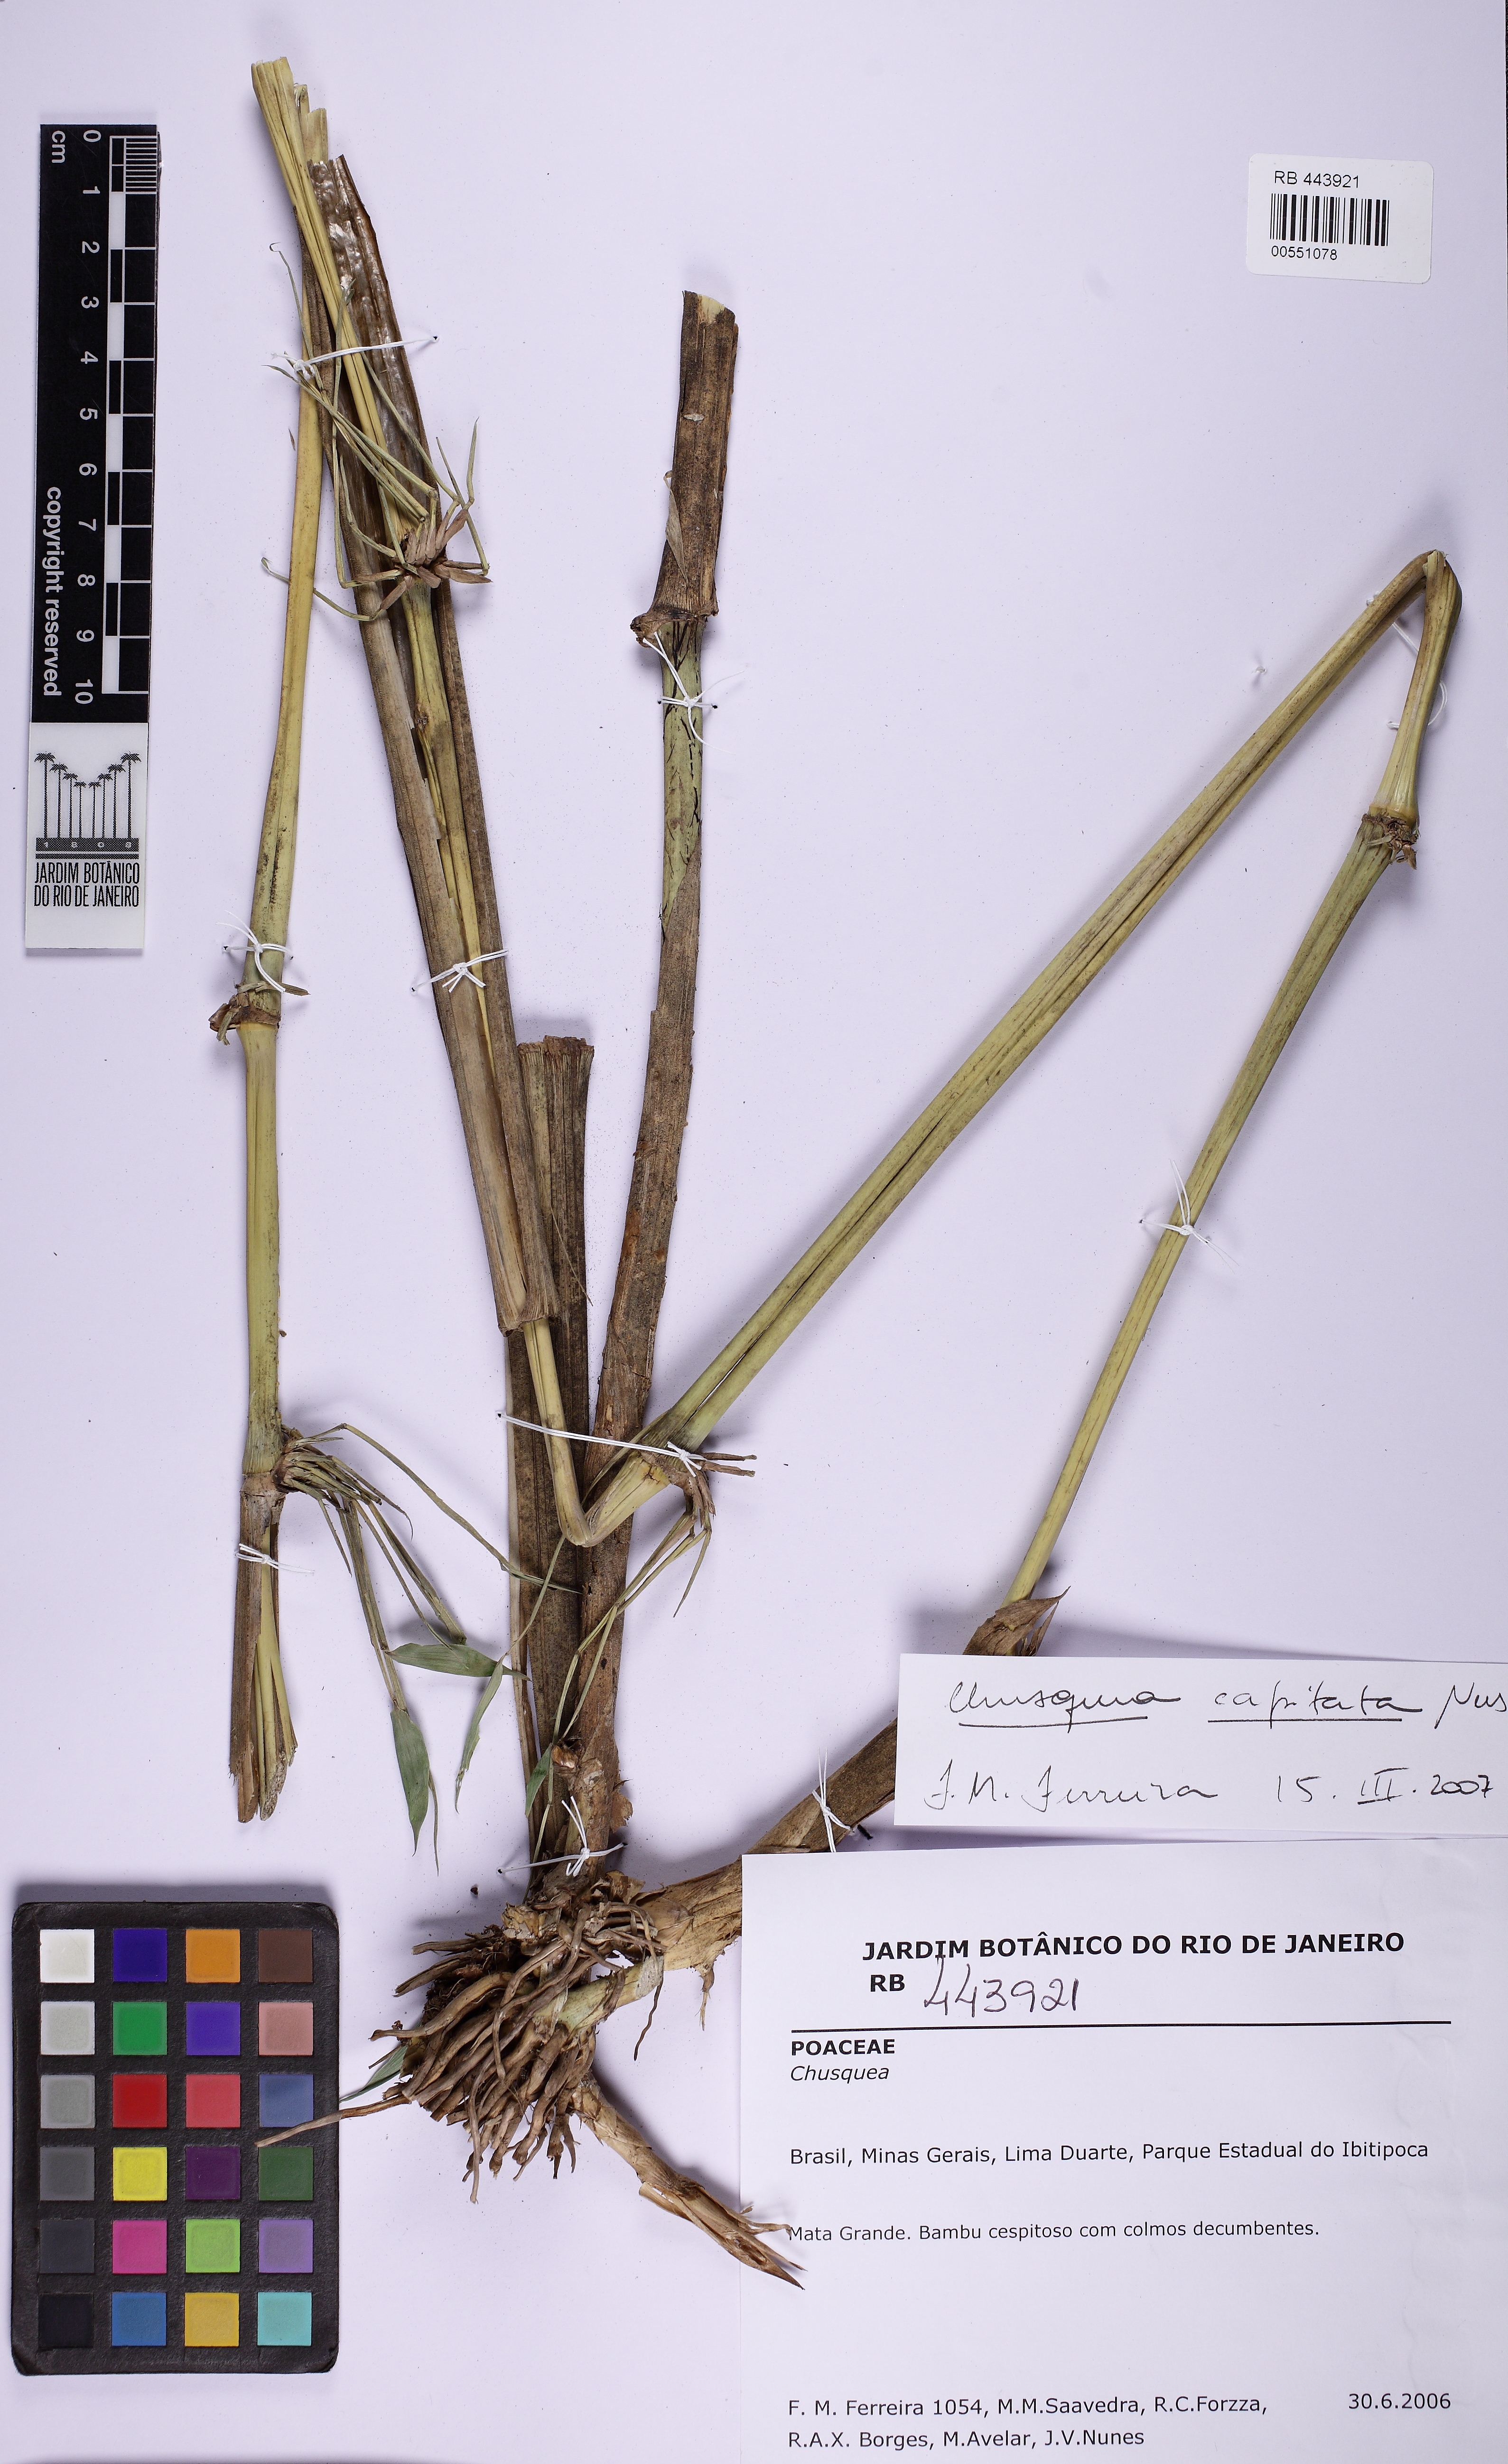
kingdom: Plantae
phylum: Tracheophyta
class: Liliopsida
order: Poales
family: Poaceae
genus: Chusquea
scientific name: Chusquea capitata
